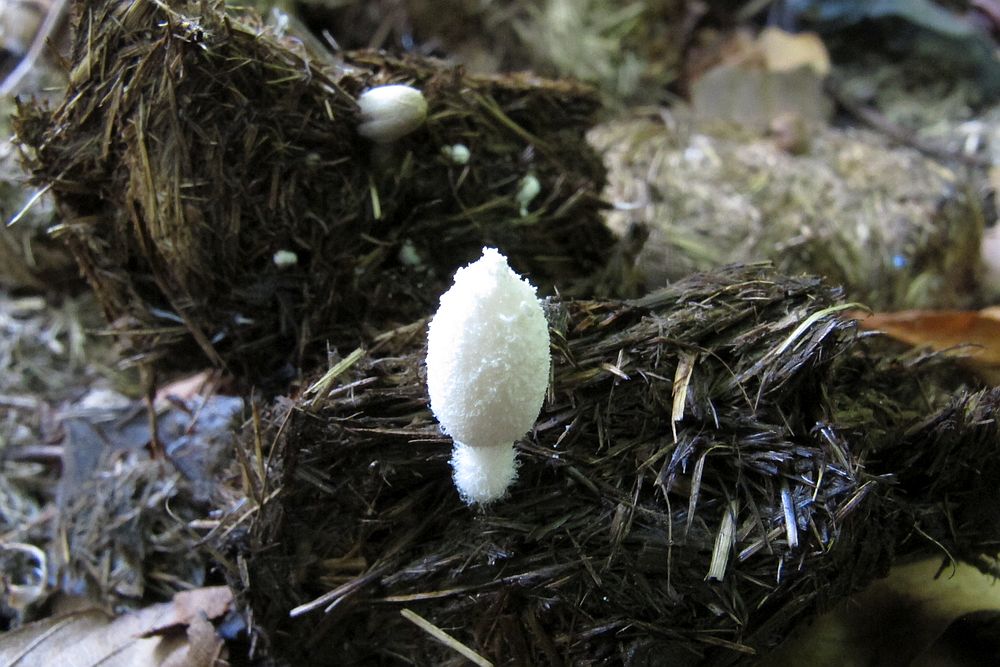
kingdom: Fungi
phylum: Basidiomycota
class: Agaricomycetes
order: Agaricales
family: Psathyrellaceae
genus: Coprinopsis
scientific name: Coprinopsis nivea
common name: snehvid blækhat
